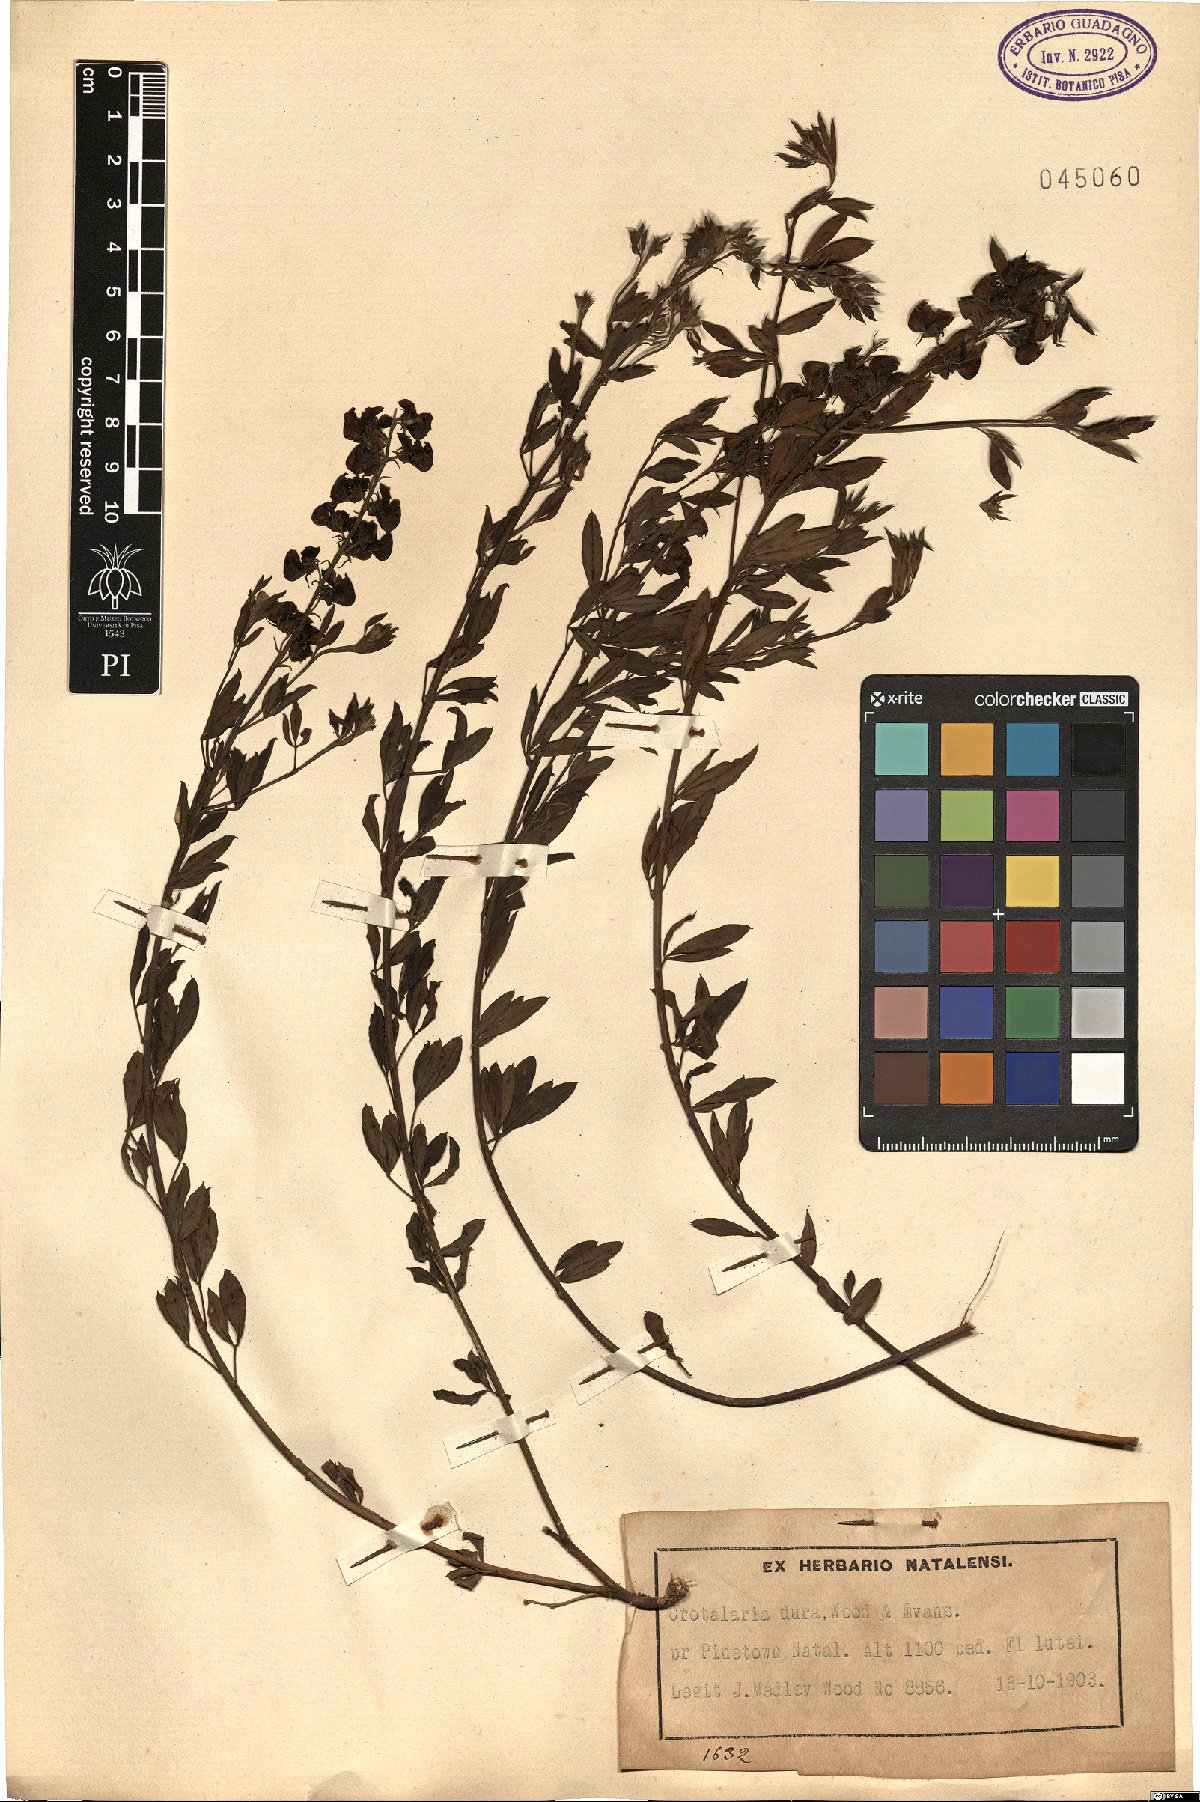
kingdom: Plantae
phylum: Tracheophyta
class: Magnoliopsida
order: Fabales
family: Fabaceae
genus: Crotalaria
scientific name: Crotalaria dura
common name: Wild lucerne
